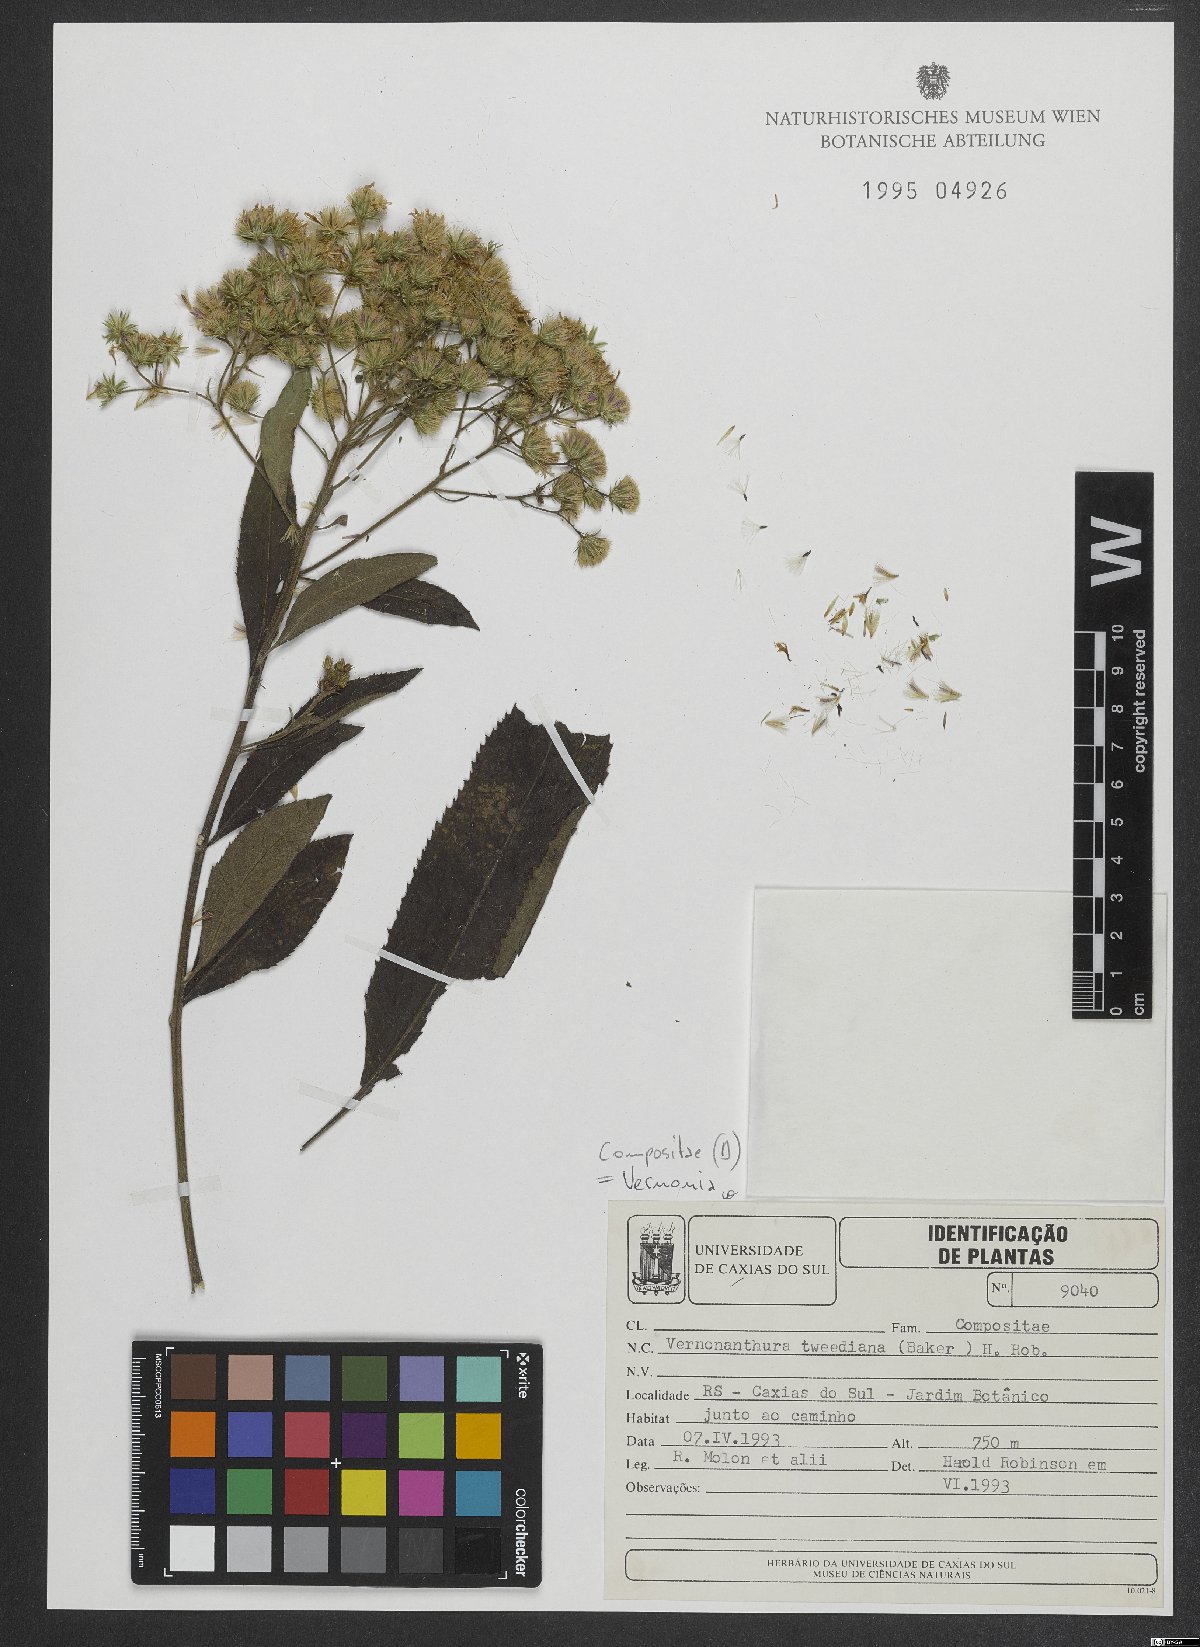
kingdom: Plantae
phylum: Tracheophyta
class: Magnoliopsida
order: Asterales
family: Asteraceae
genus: Vernonanthura
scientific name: Vernonanthura tweedieana
